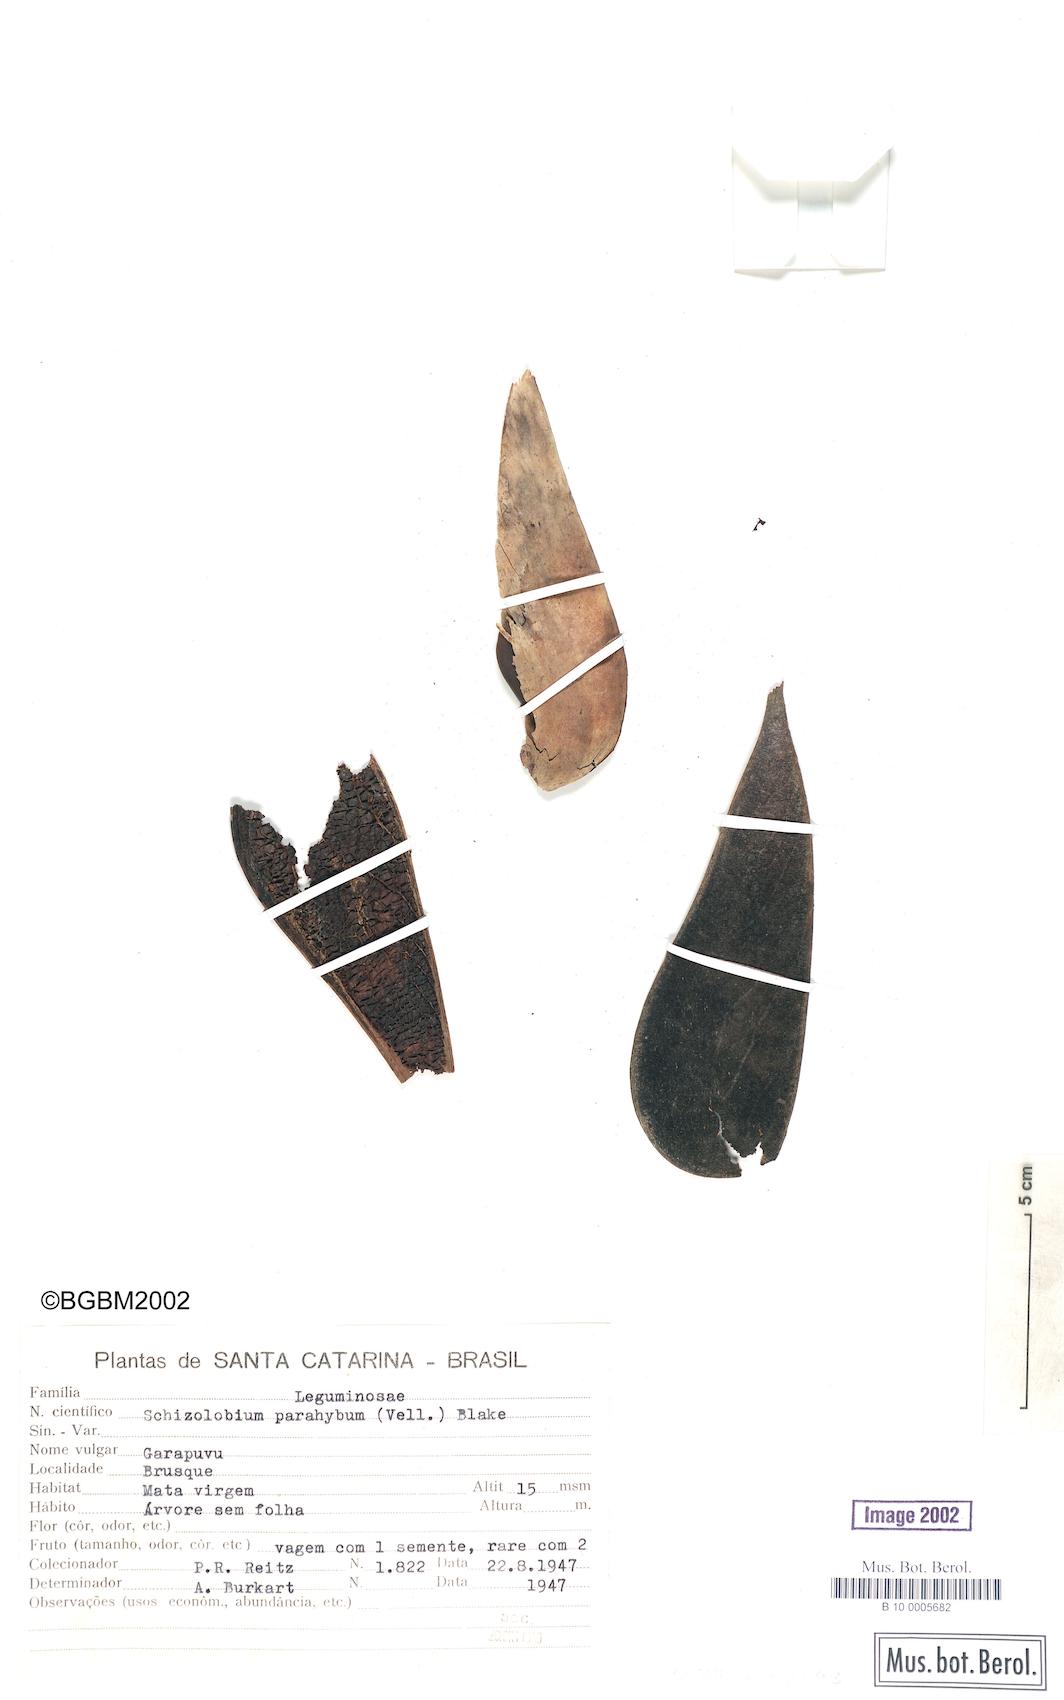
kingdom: Plantae
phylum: Tracheophyta
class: Magnoliopsida
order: Fabales
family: Fabaceae
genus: Schizolobium
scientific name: Schizolobium parahyba
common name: Brazilian firetree
